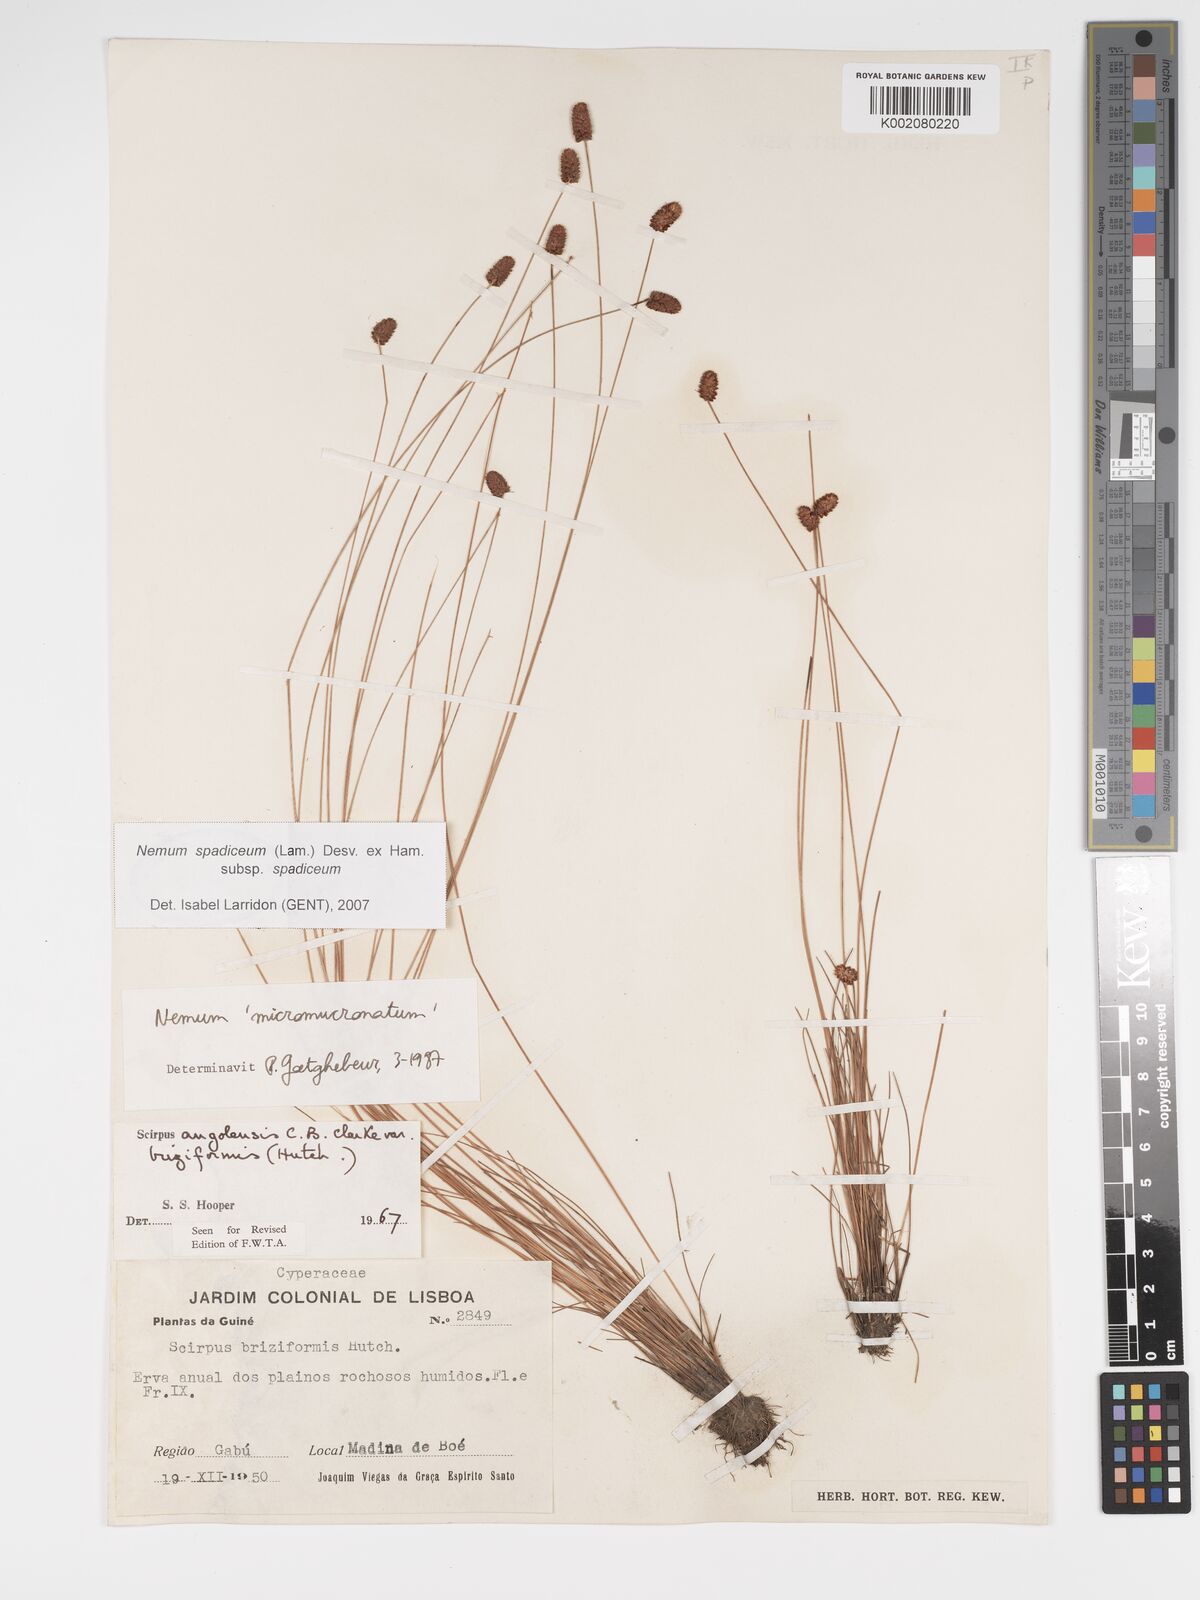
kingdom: Plantae
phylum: Tracheophyta
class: Liliopsida
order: Poales
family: Cyperaceae
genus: Bulbostylis
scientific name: Bulbostylis briziformis
